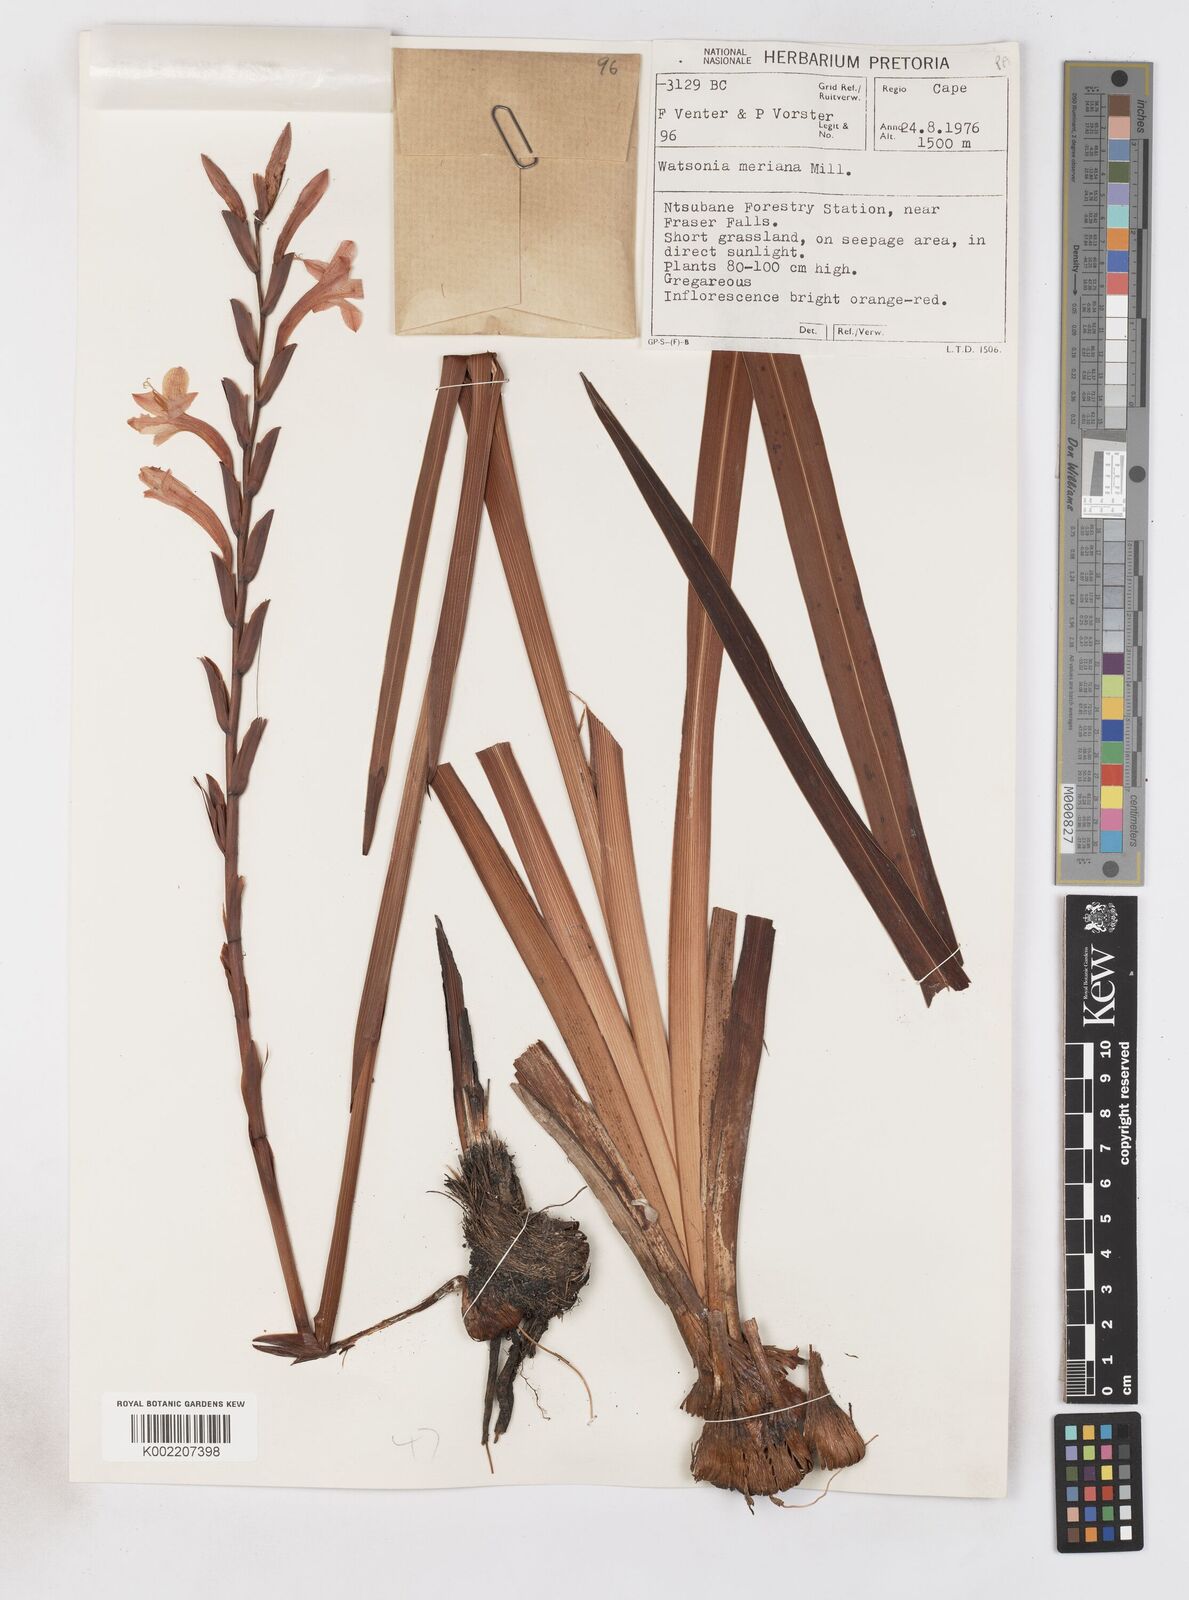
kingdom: Plantae
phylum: Tracheophyta
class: Liliopsida
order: Asparagales
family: Iridaceae
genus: Watsonia
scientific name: Watsonia pillansii
